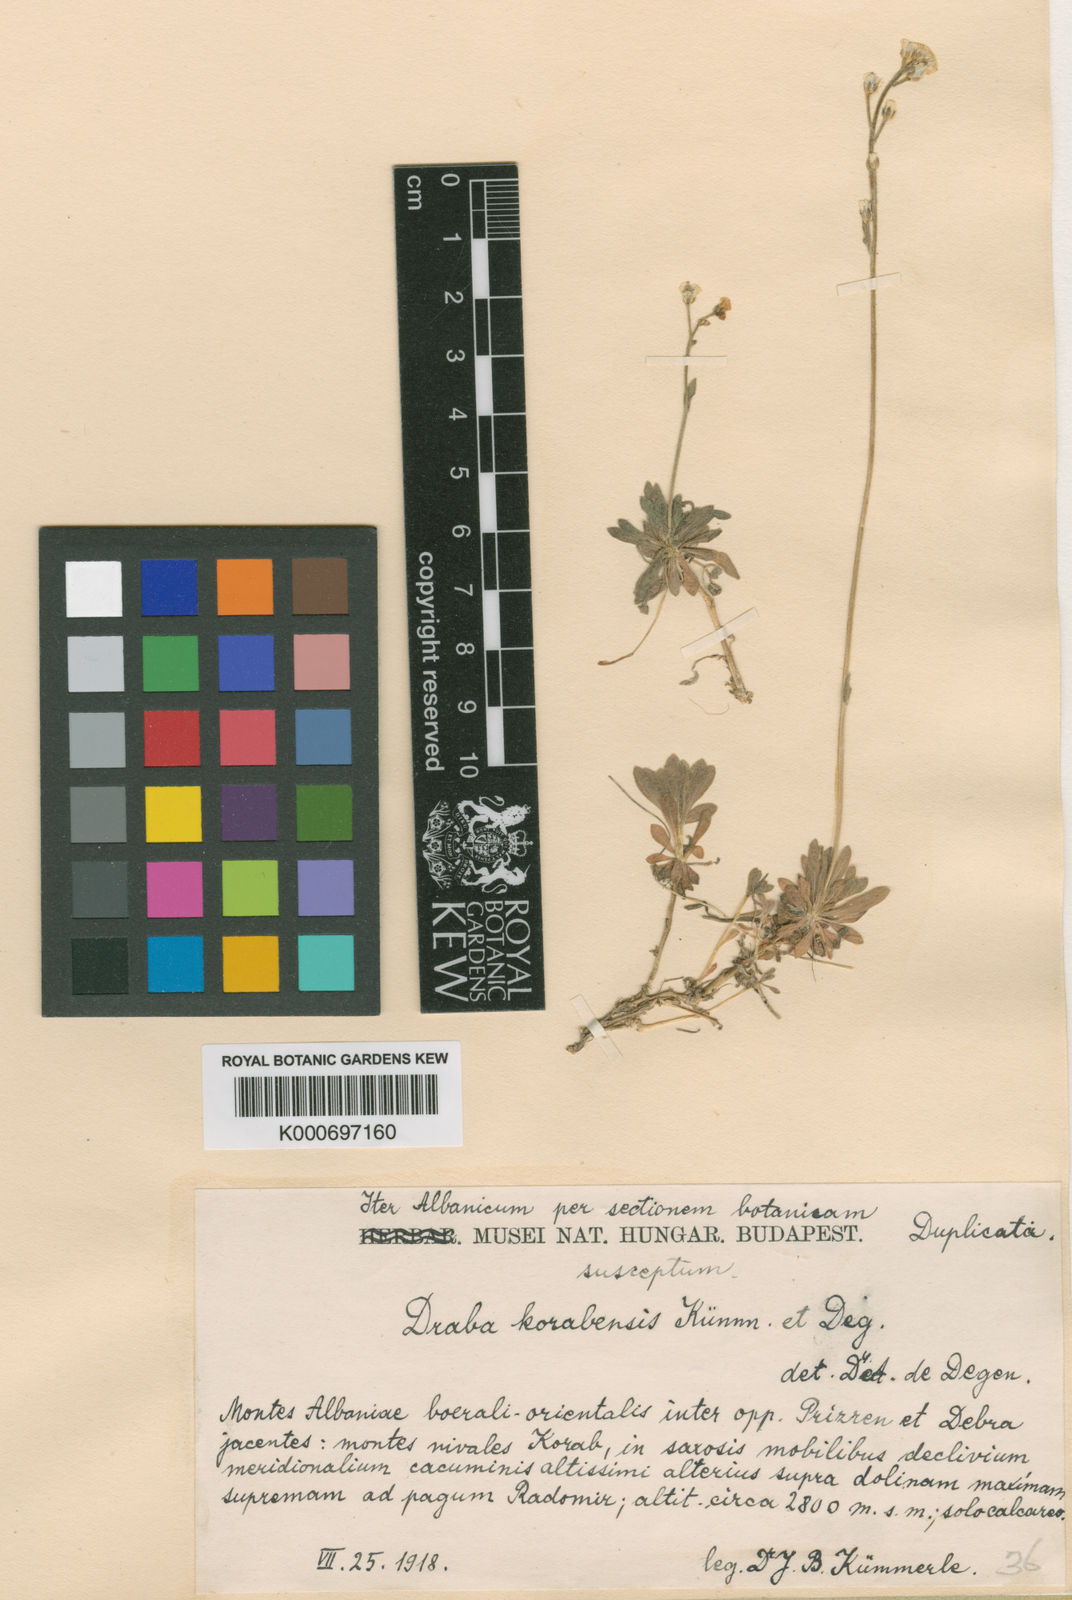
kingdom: Plantae
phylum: Tracheophyta
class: Magnoliopsida
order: Brassicales
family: Brassicaceae
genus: Draba
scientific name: Draba
